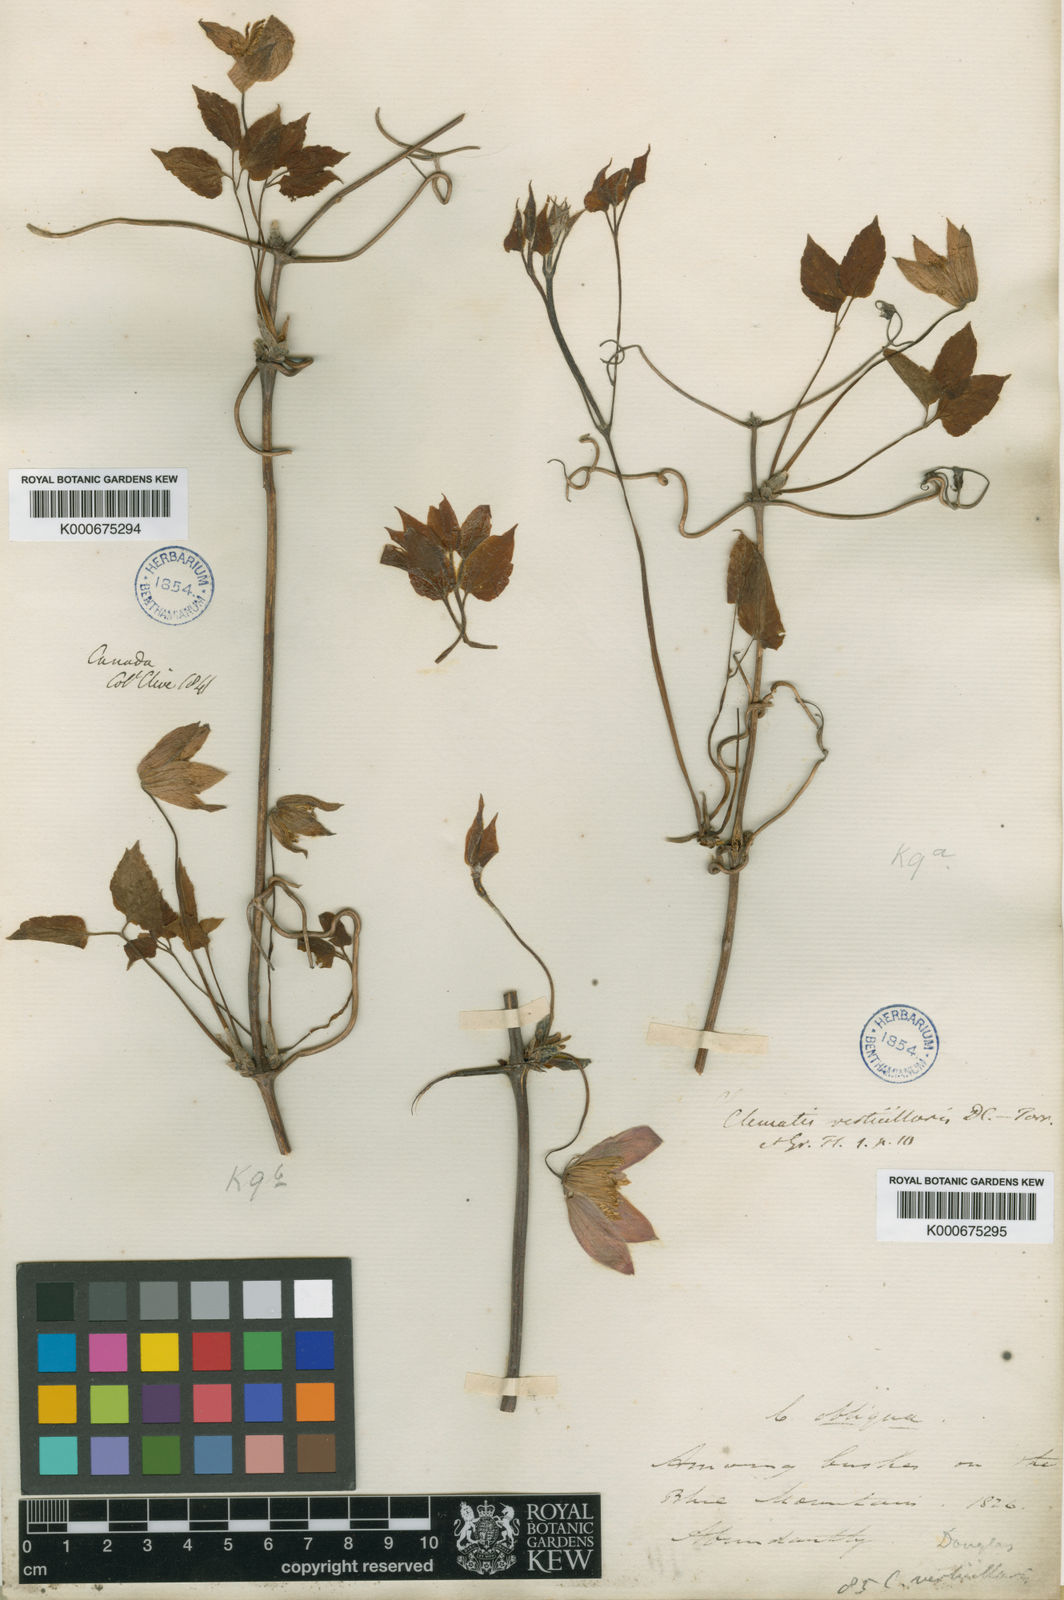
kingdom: Plantae
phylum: Tracheophyta
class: Magnoliopsida
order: Ranunculales
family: Ranunculaceae
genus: Clematis
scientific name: Clematis occidentalis
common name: Purple clematis
